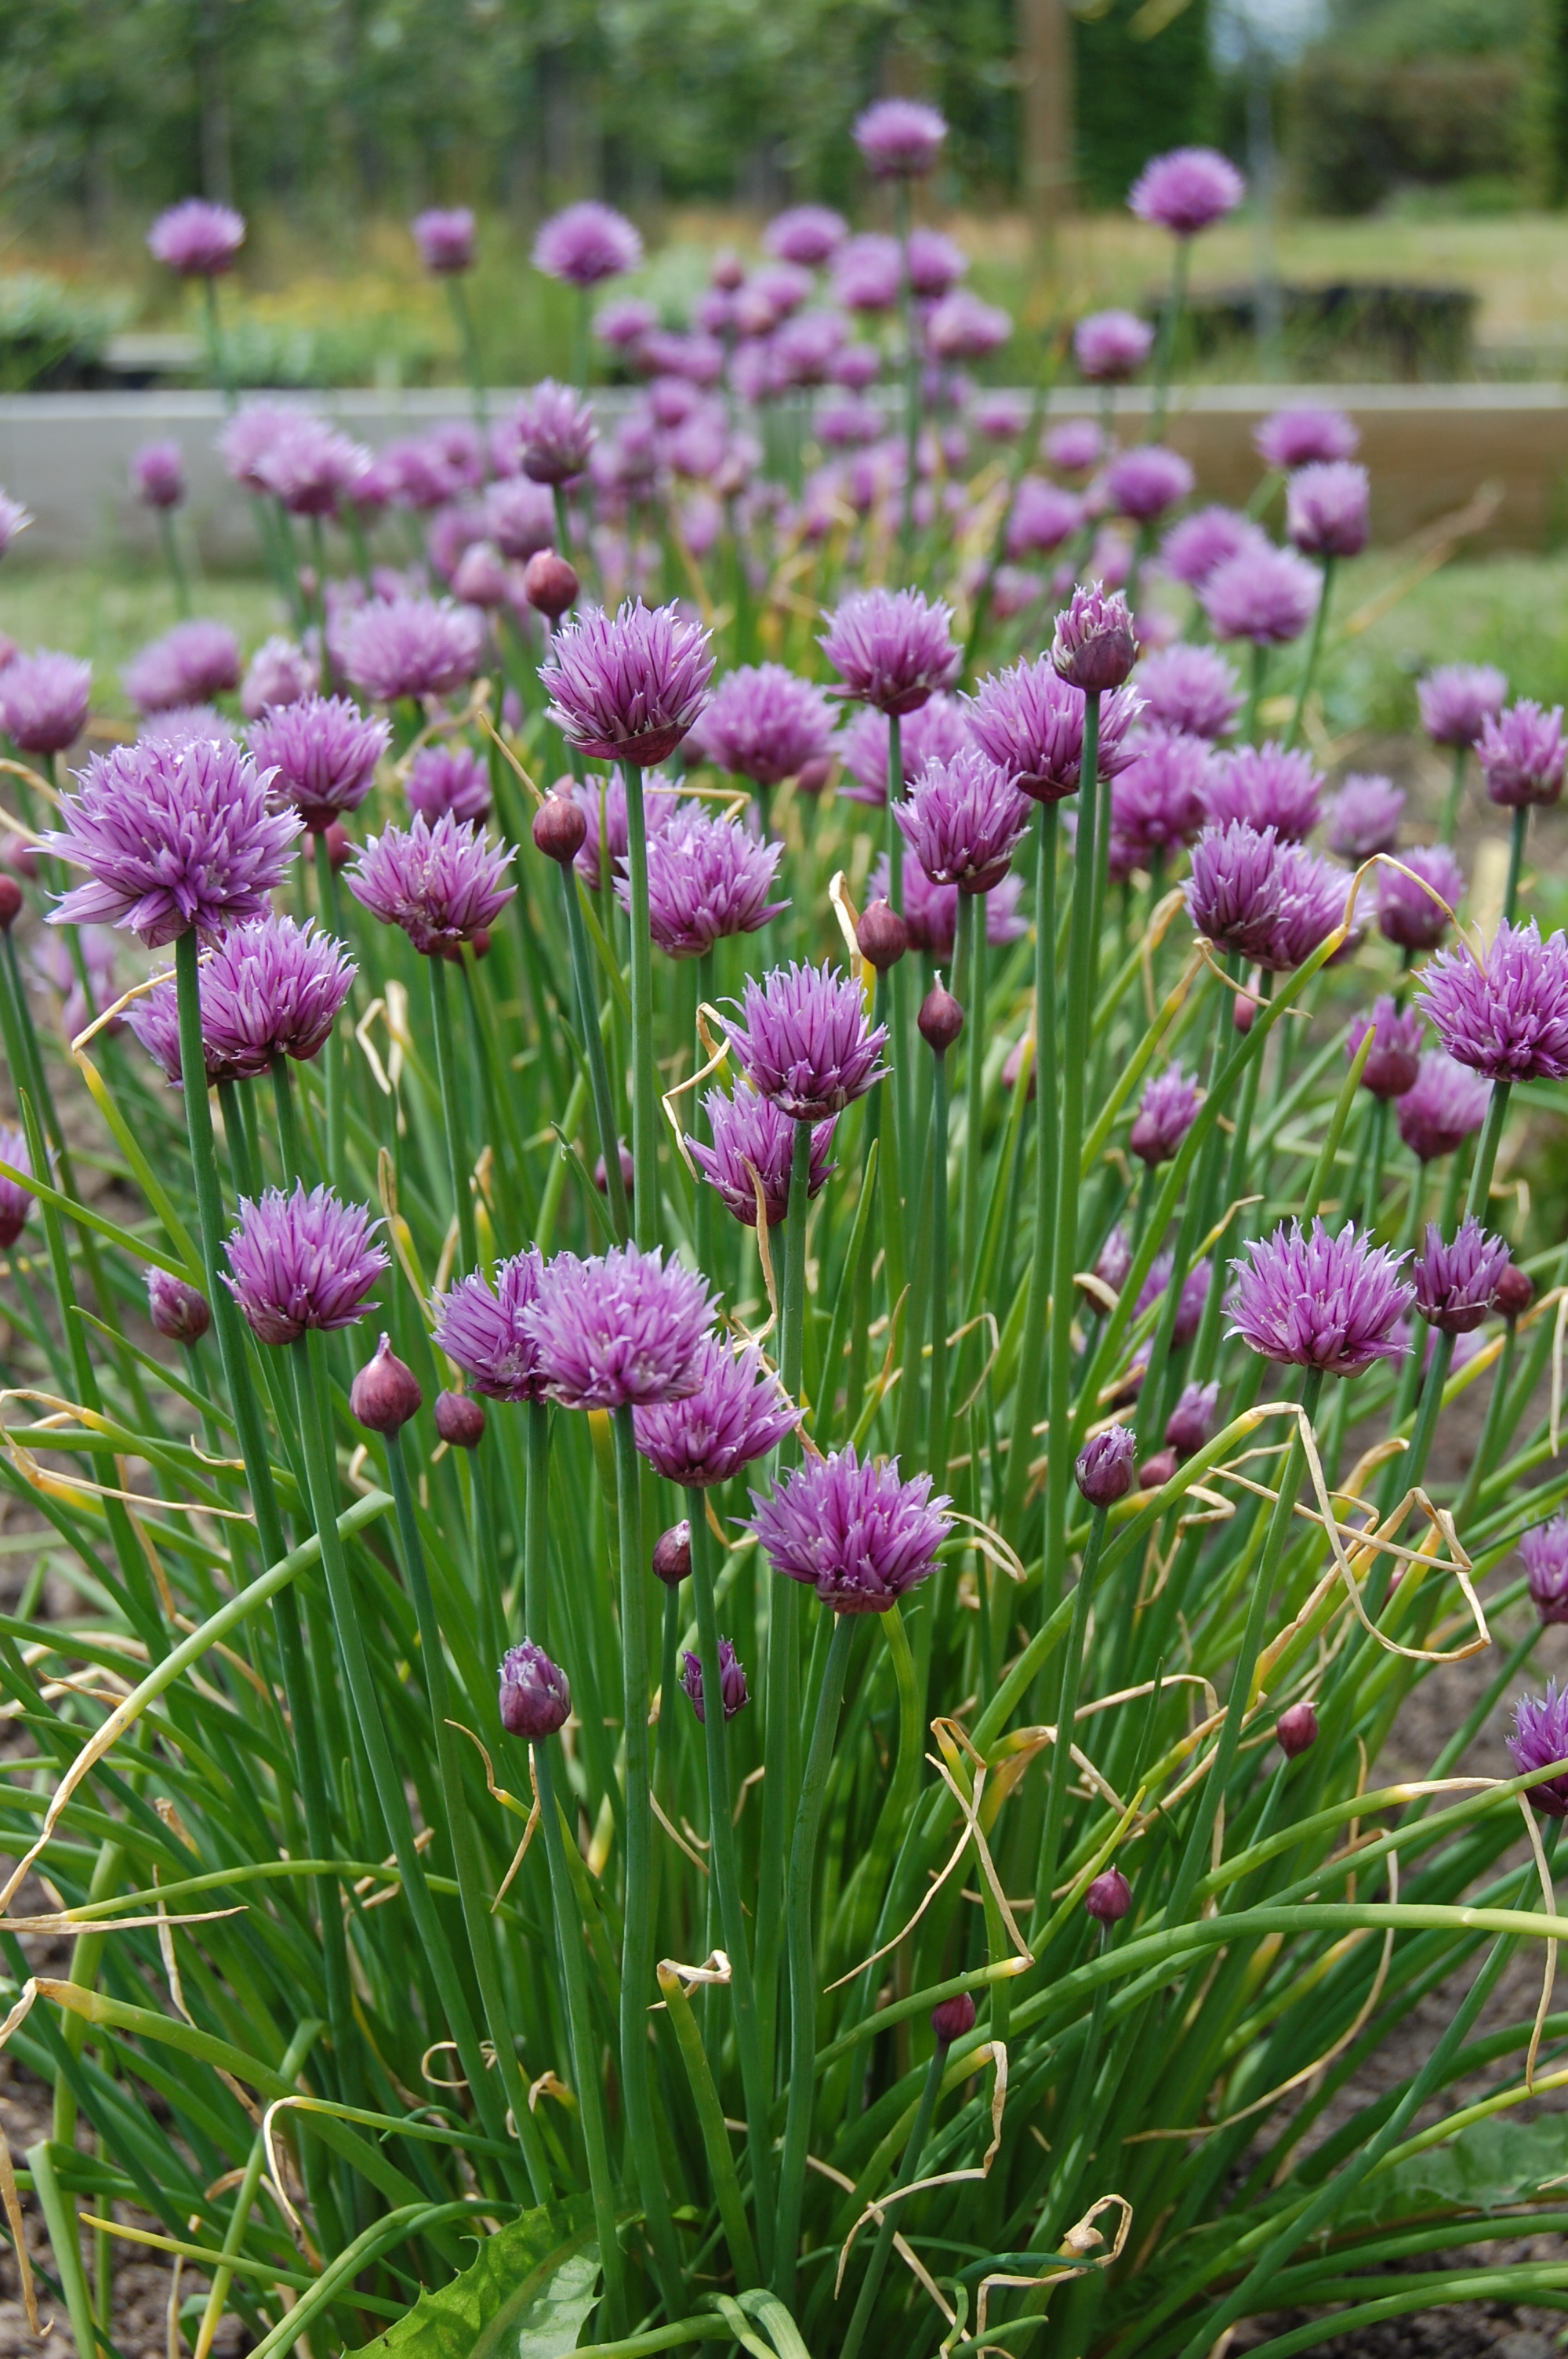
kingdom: Plantae
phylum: Tracheophyta
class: Liliopsida
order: Asparagales
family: Amaryllidaceae
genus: Allium
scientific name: Allium schoenoprasum
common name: Chives
